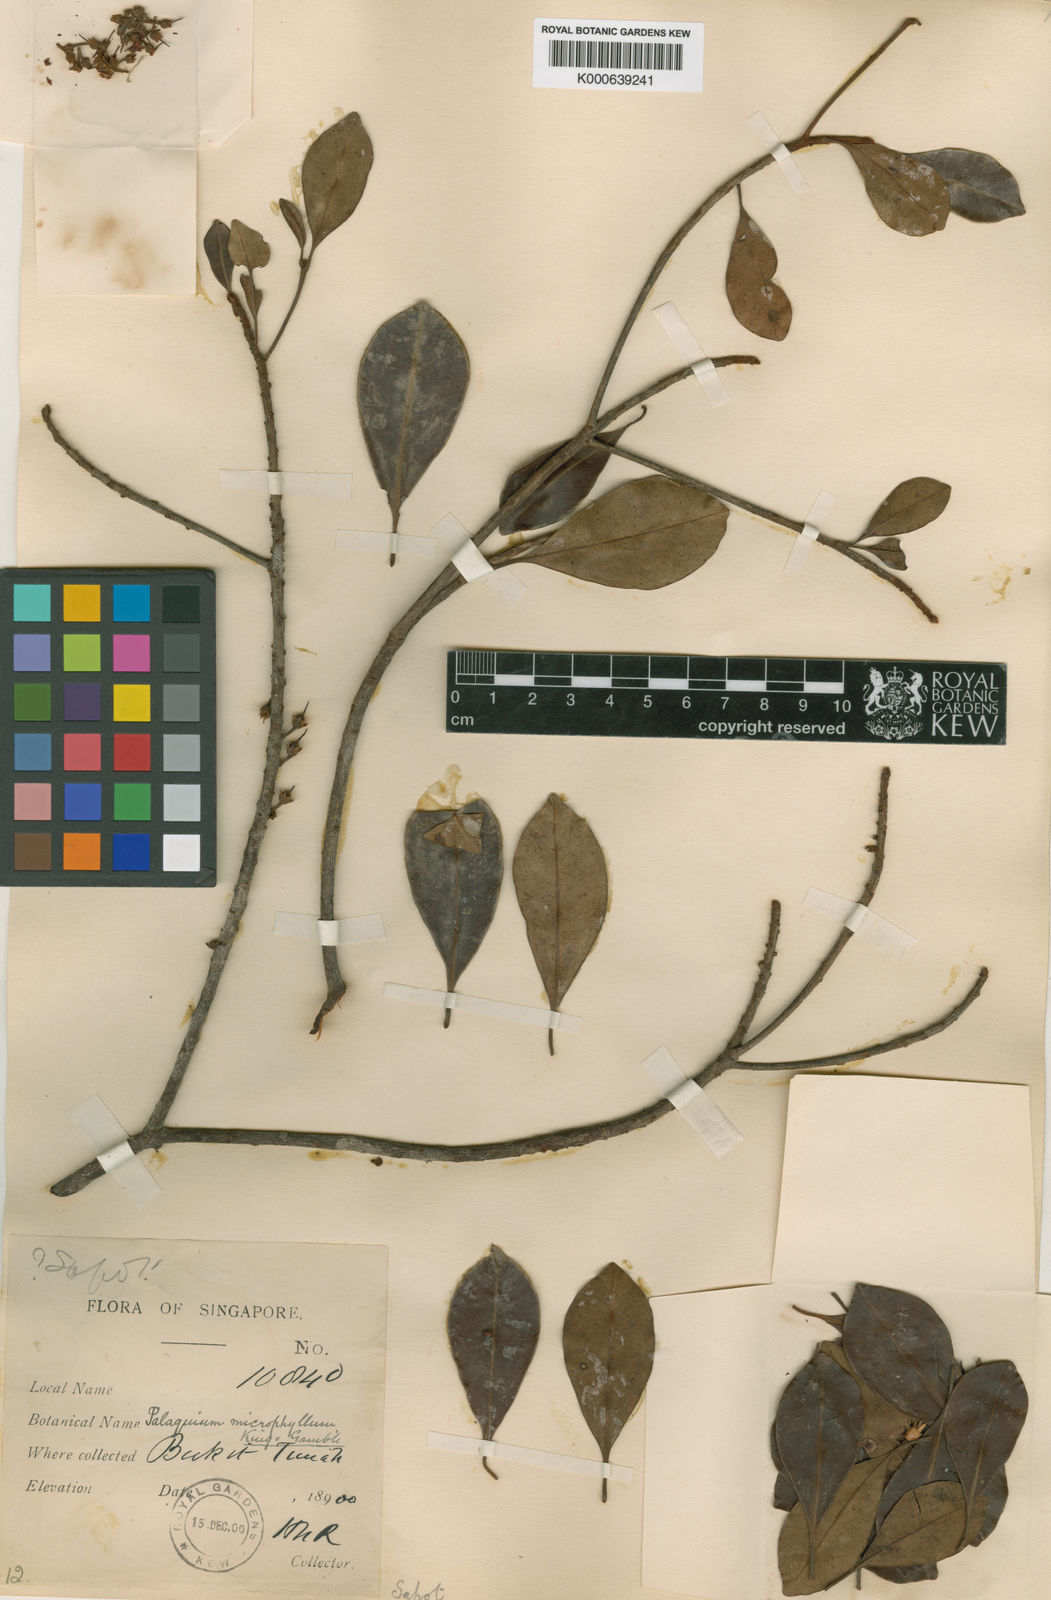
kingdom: Plantae
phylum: Tracheophyta
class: Magnoliopsida
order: Ericales
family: Sapotaceae
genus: Palaquium
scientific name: Palaquium microphyllum
